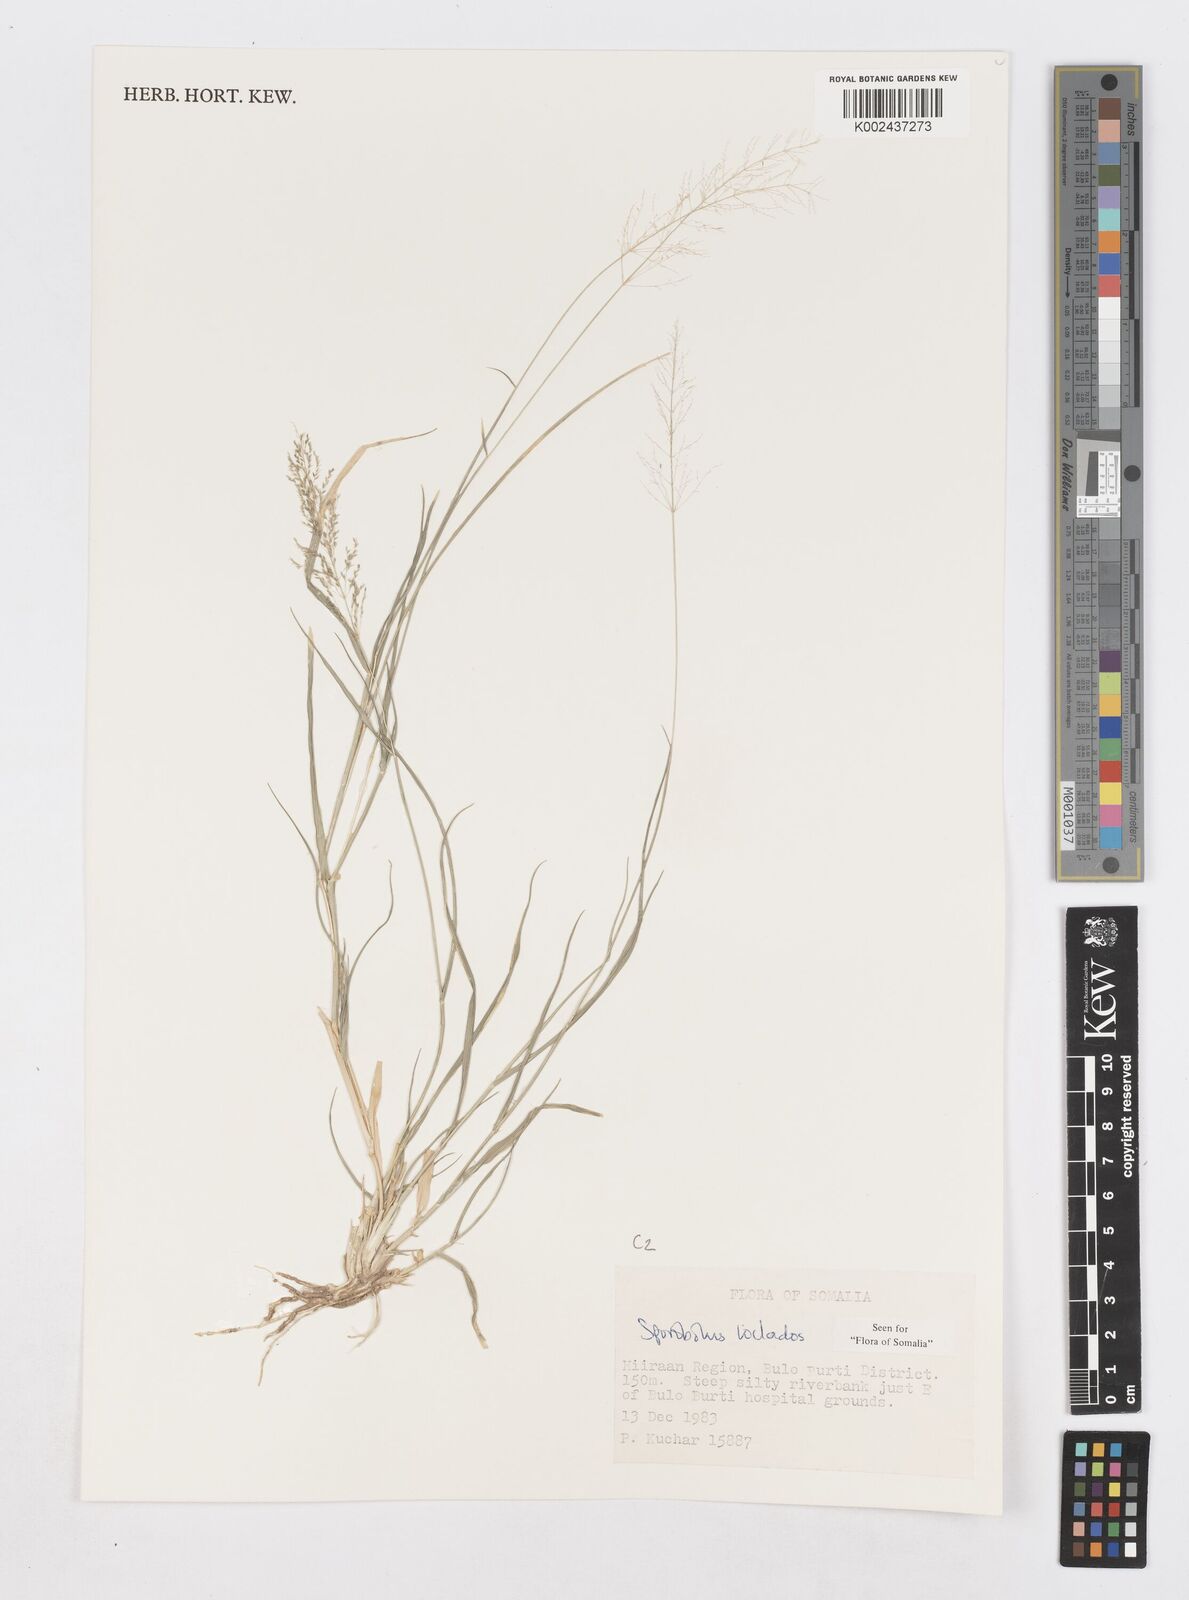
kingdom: Plantae
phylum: Tracheophyta
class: Liliopsida
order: Poales
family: Poaceae
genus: Sporobolus
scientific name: Sporobolus ioclados
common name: Pan dropseed
